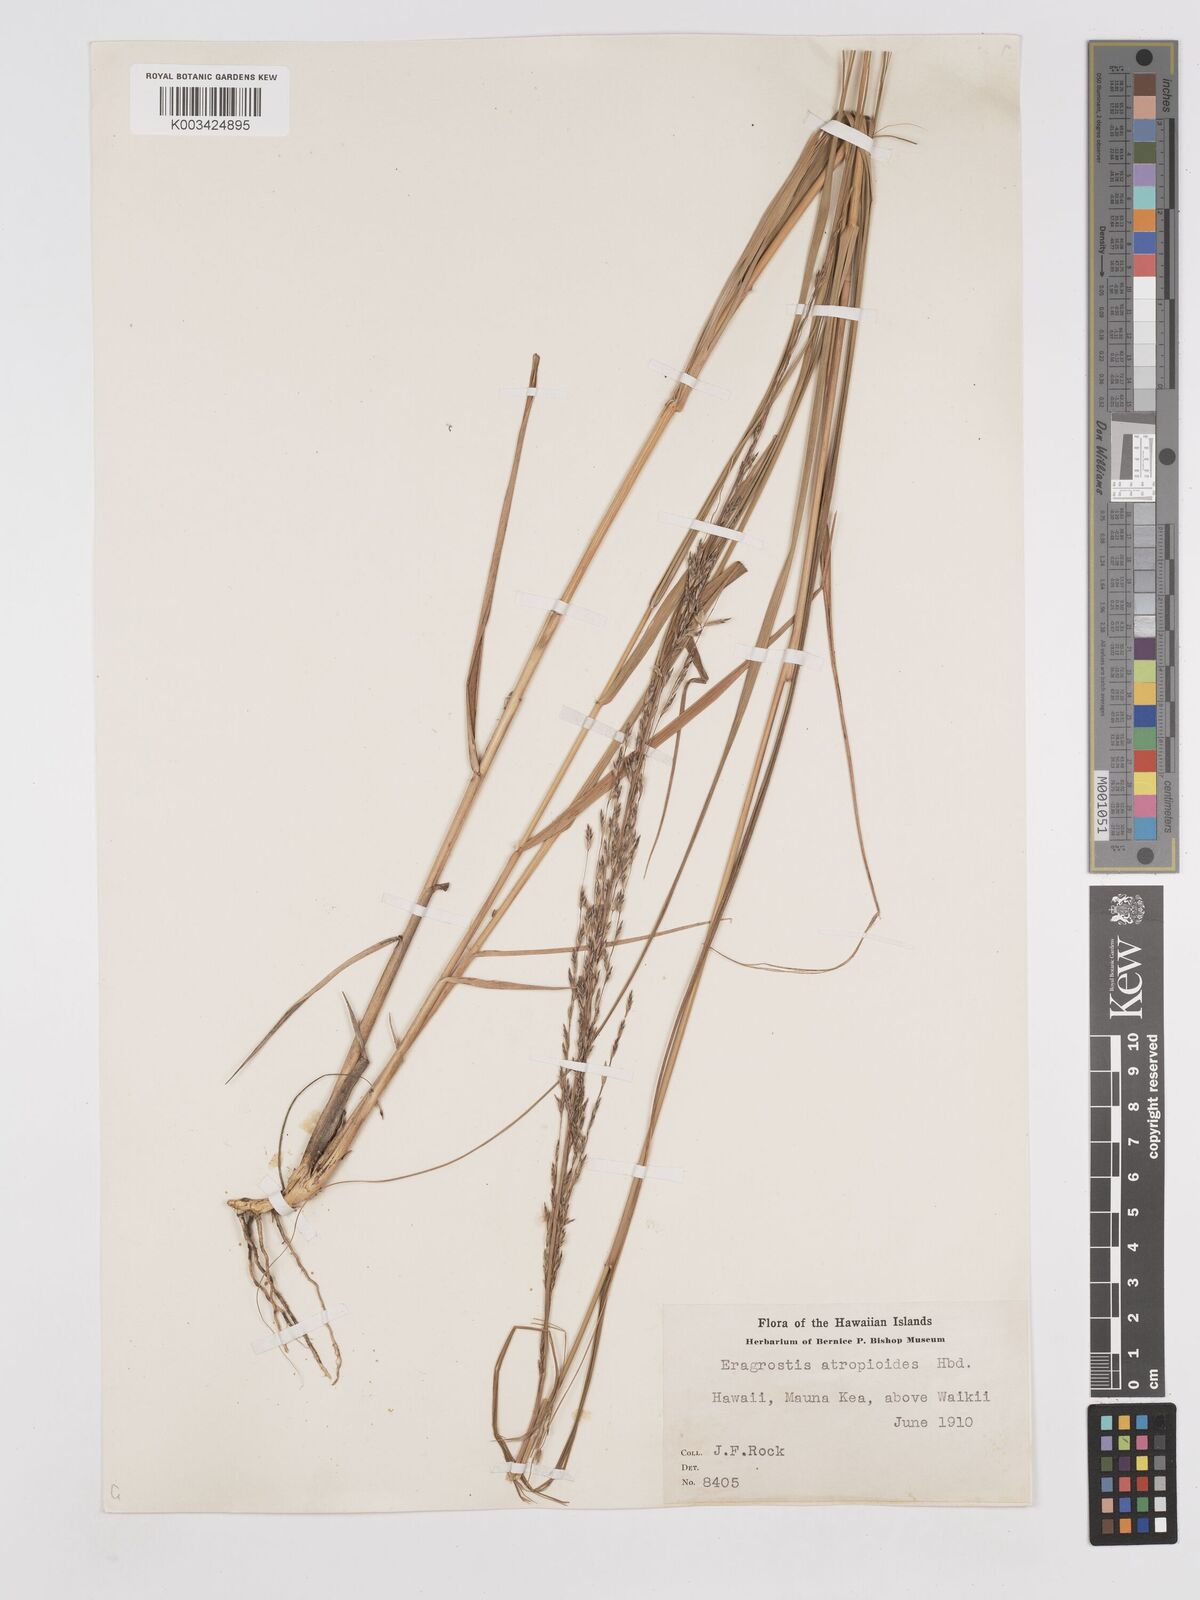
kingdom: Plantae
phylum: Tracheophyta
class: Liliopsida
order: Poales
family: Poaceae
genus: Eragrostis
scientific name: Eragrostis atropioides
